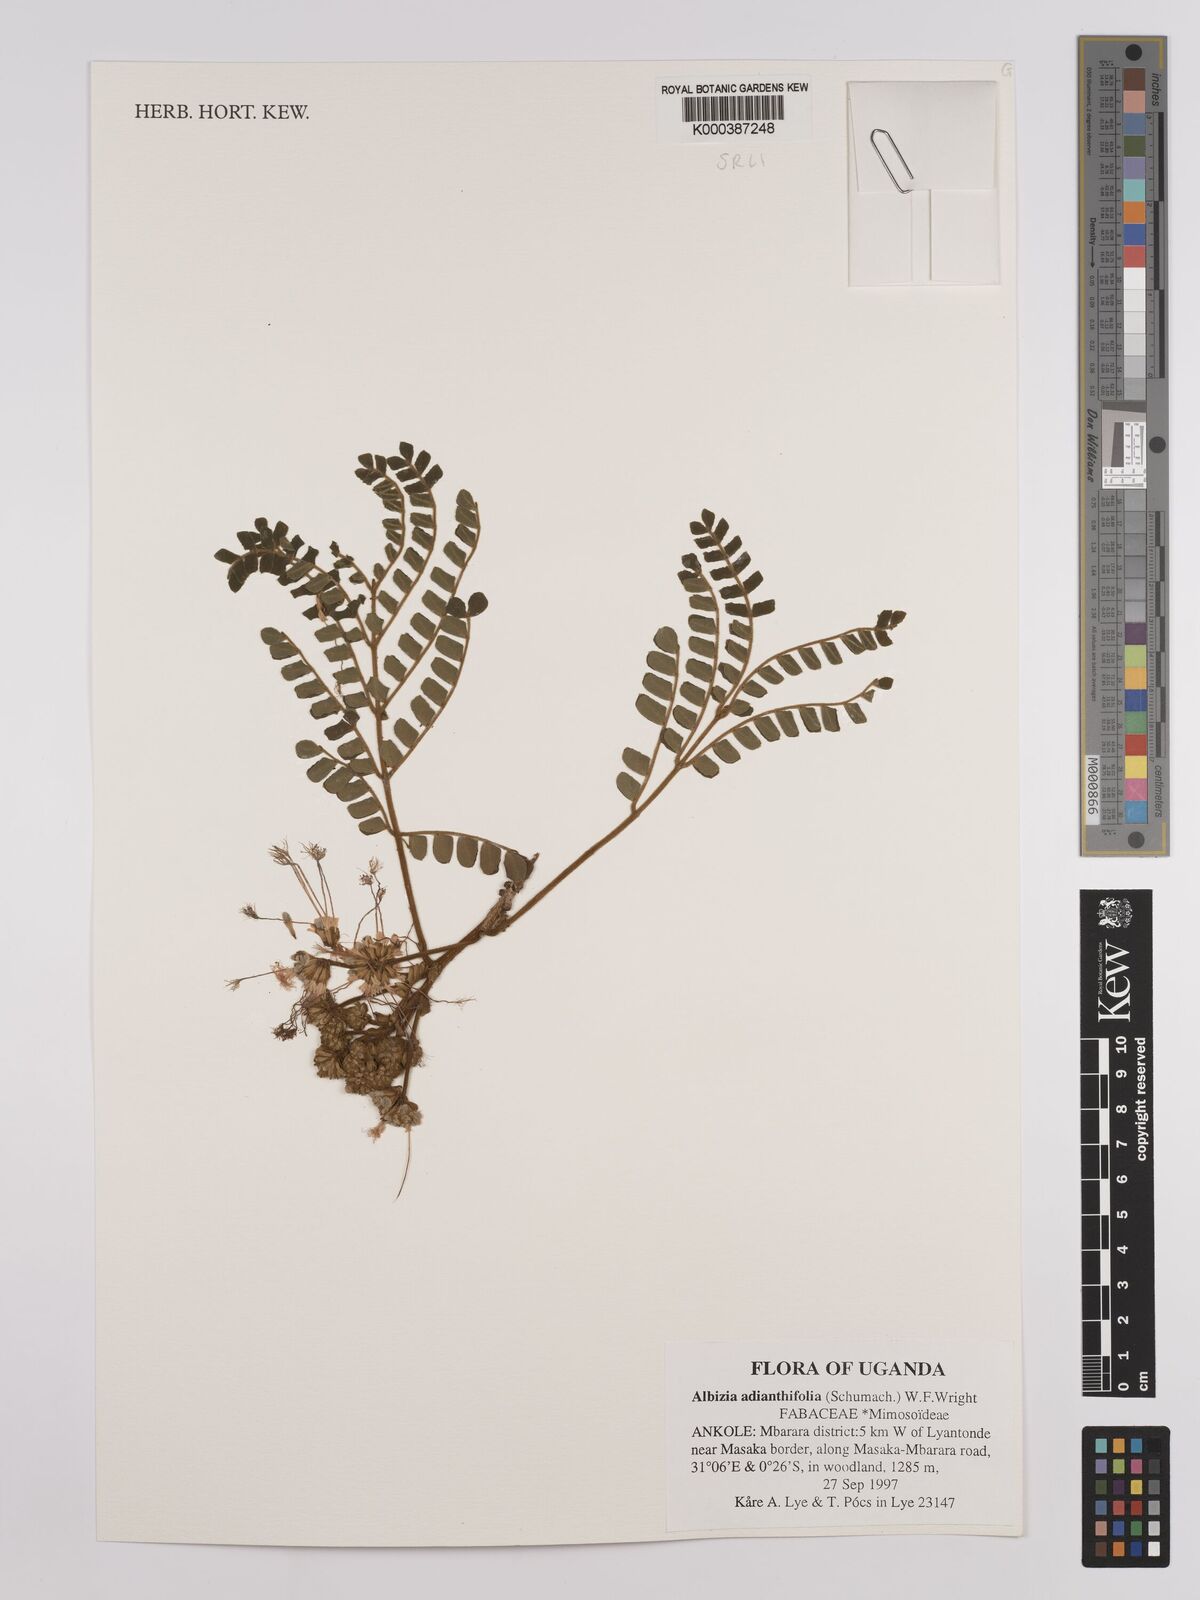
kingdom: Plantae
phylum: Tracheophyta
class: Magnoliopsida
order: Fabales
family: Fabaceae
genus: Albizia
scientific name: Albizia adianthifolia
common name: West african albizia
